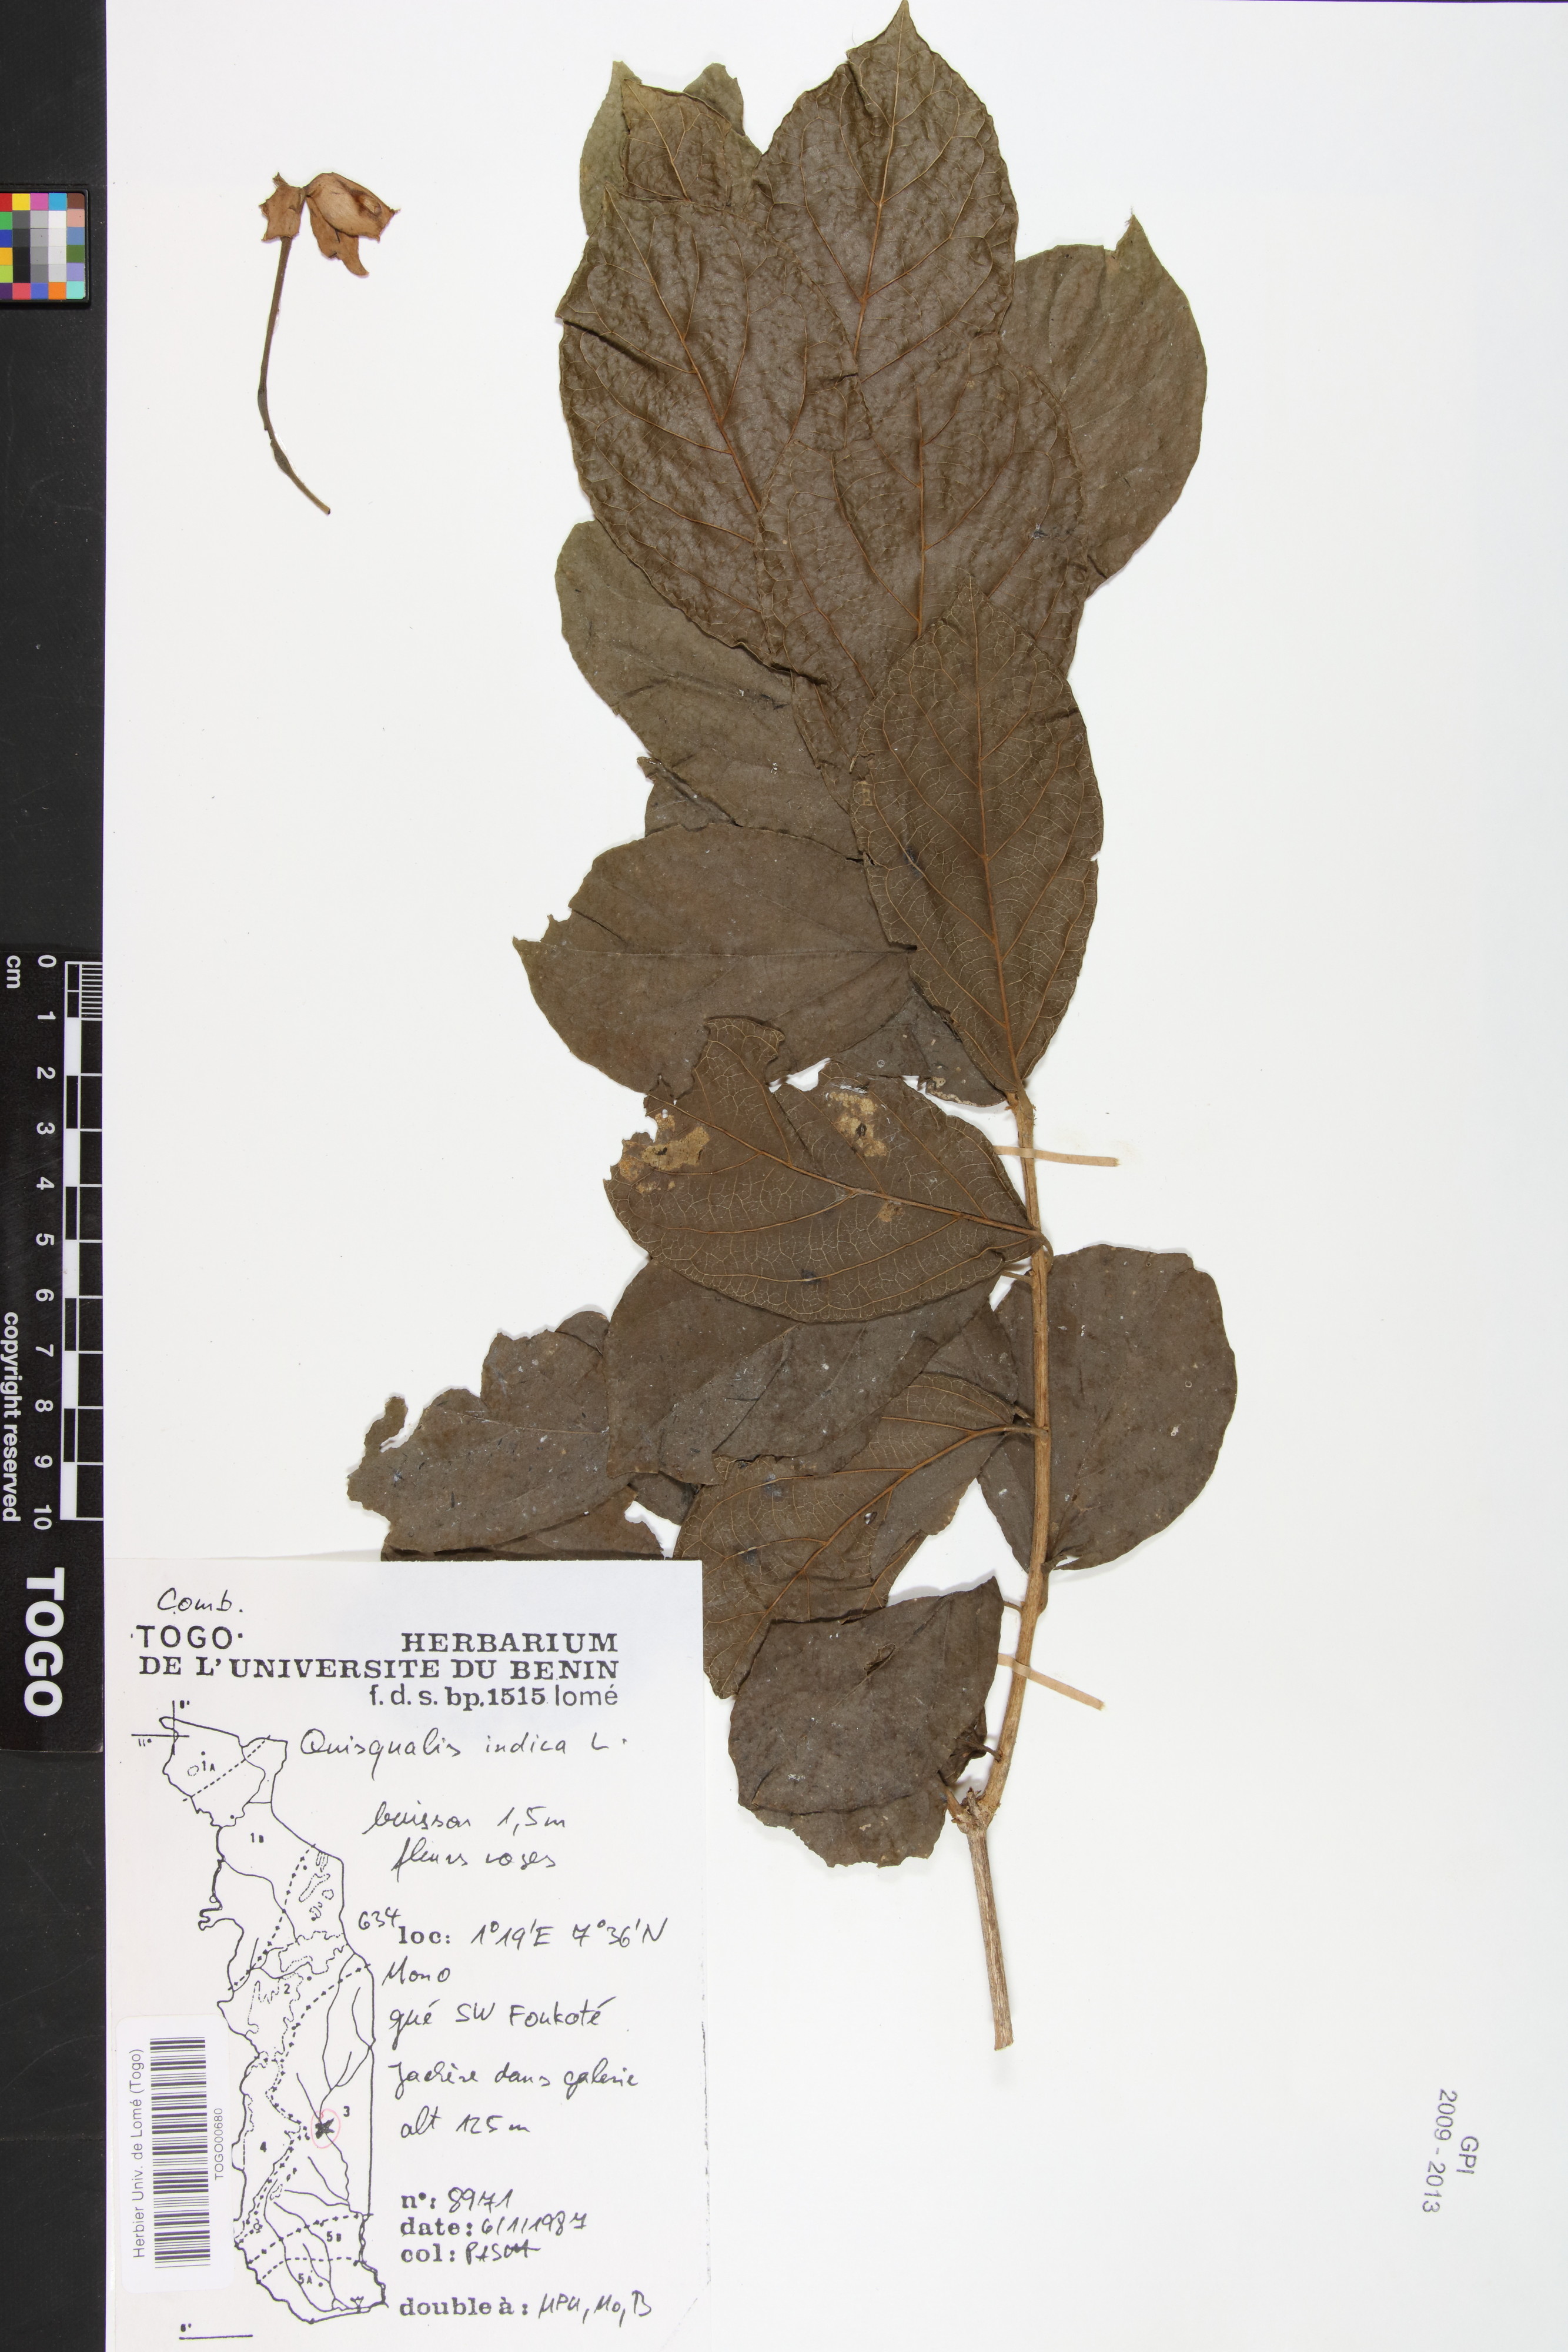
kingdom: Plantae
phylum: Tracheophyta
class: Magnoliopsida
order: Myrtales
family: Combretaceae
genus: Combretum
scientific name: Combretum indicum
